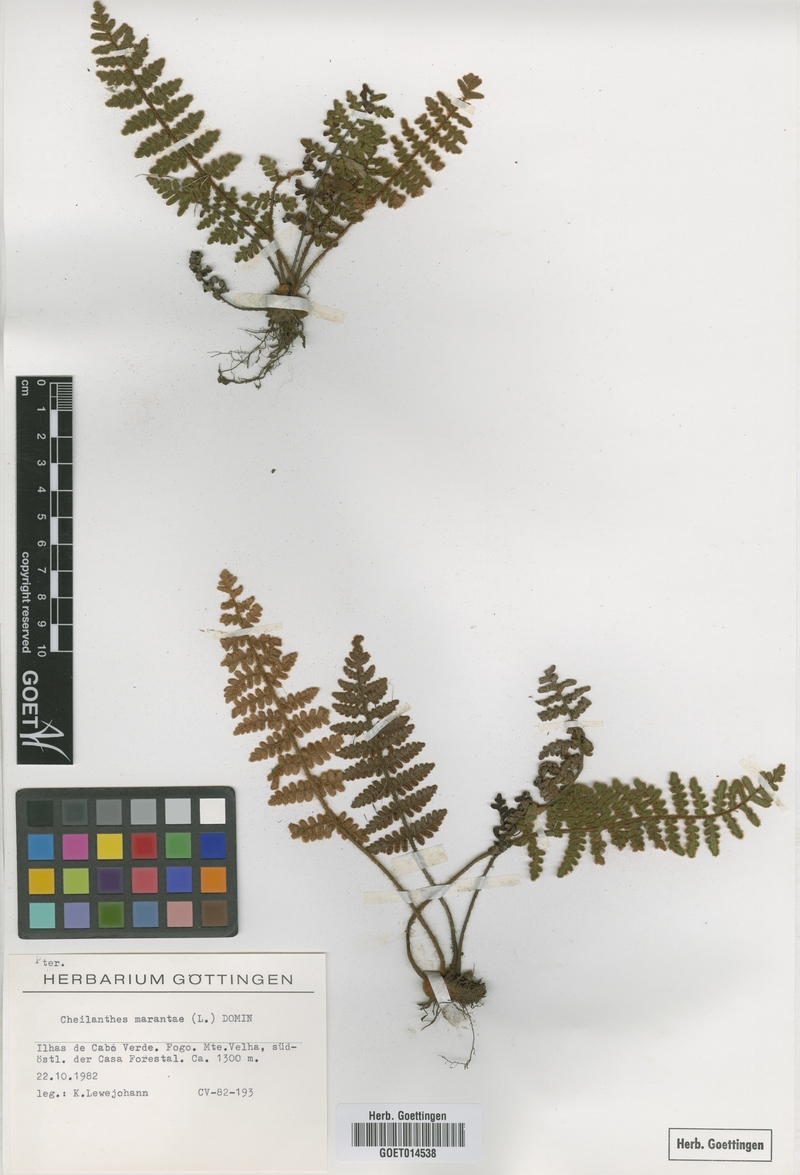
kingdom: Plantae
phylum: Tracheophyta
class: Polypodiopsida
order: Polypodiales
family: Pteridaceae
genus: Paragymnopteris
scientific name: Paragymnopteris marantae
